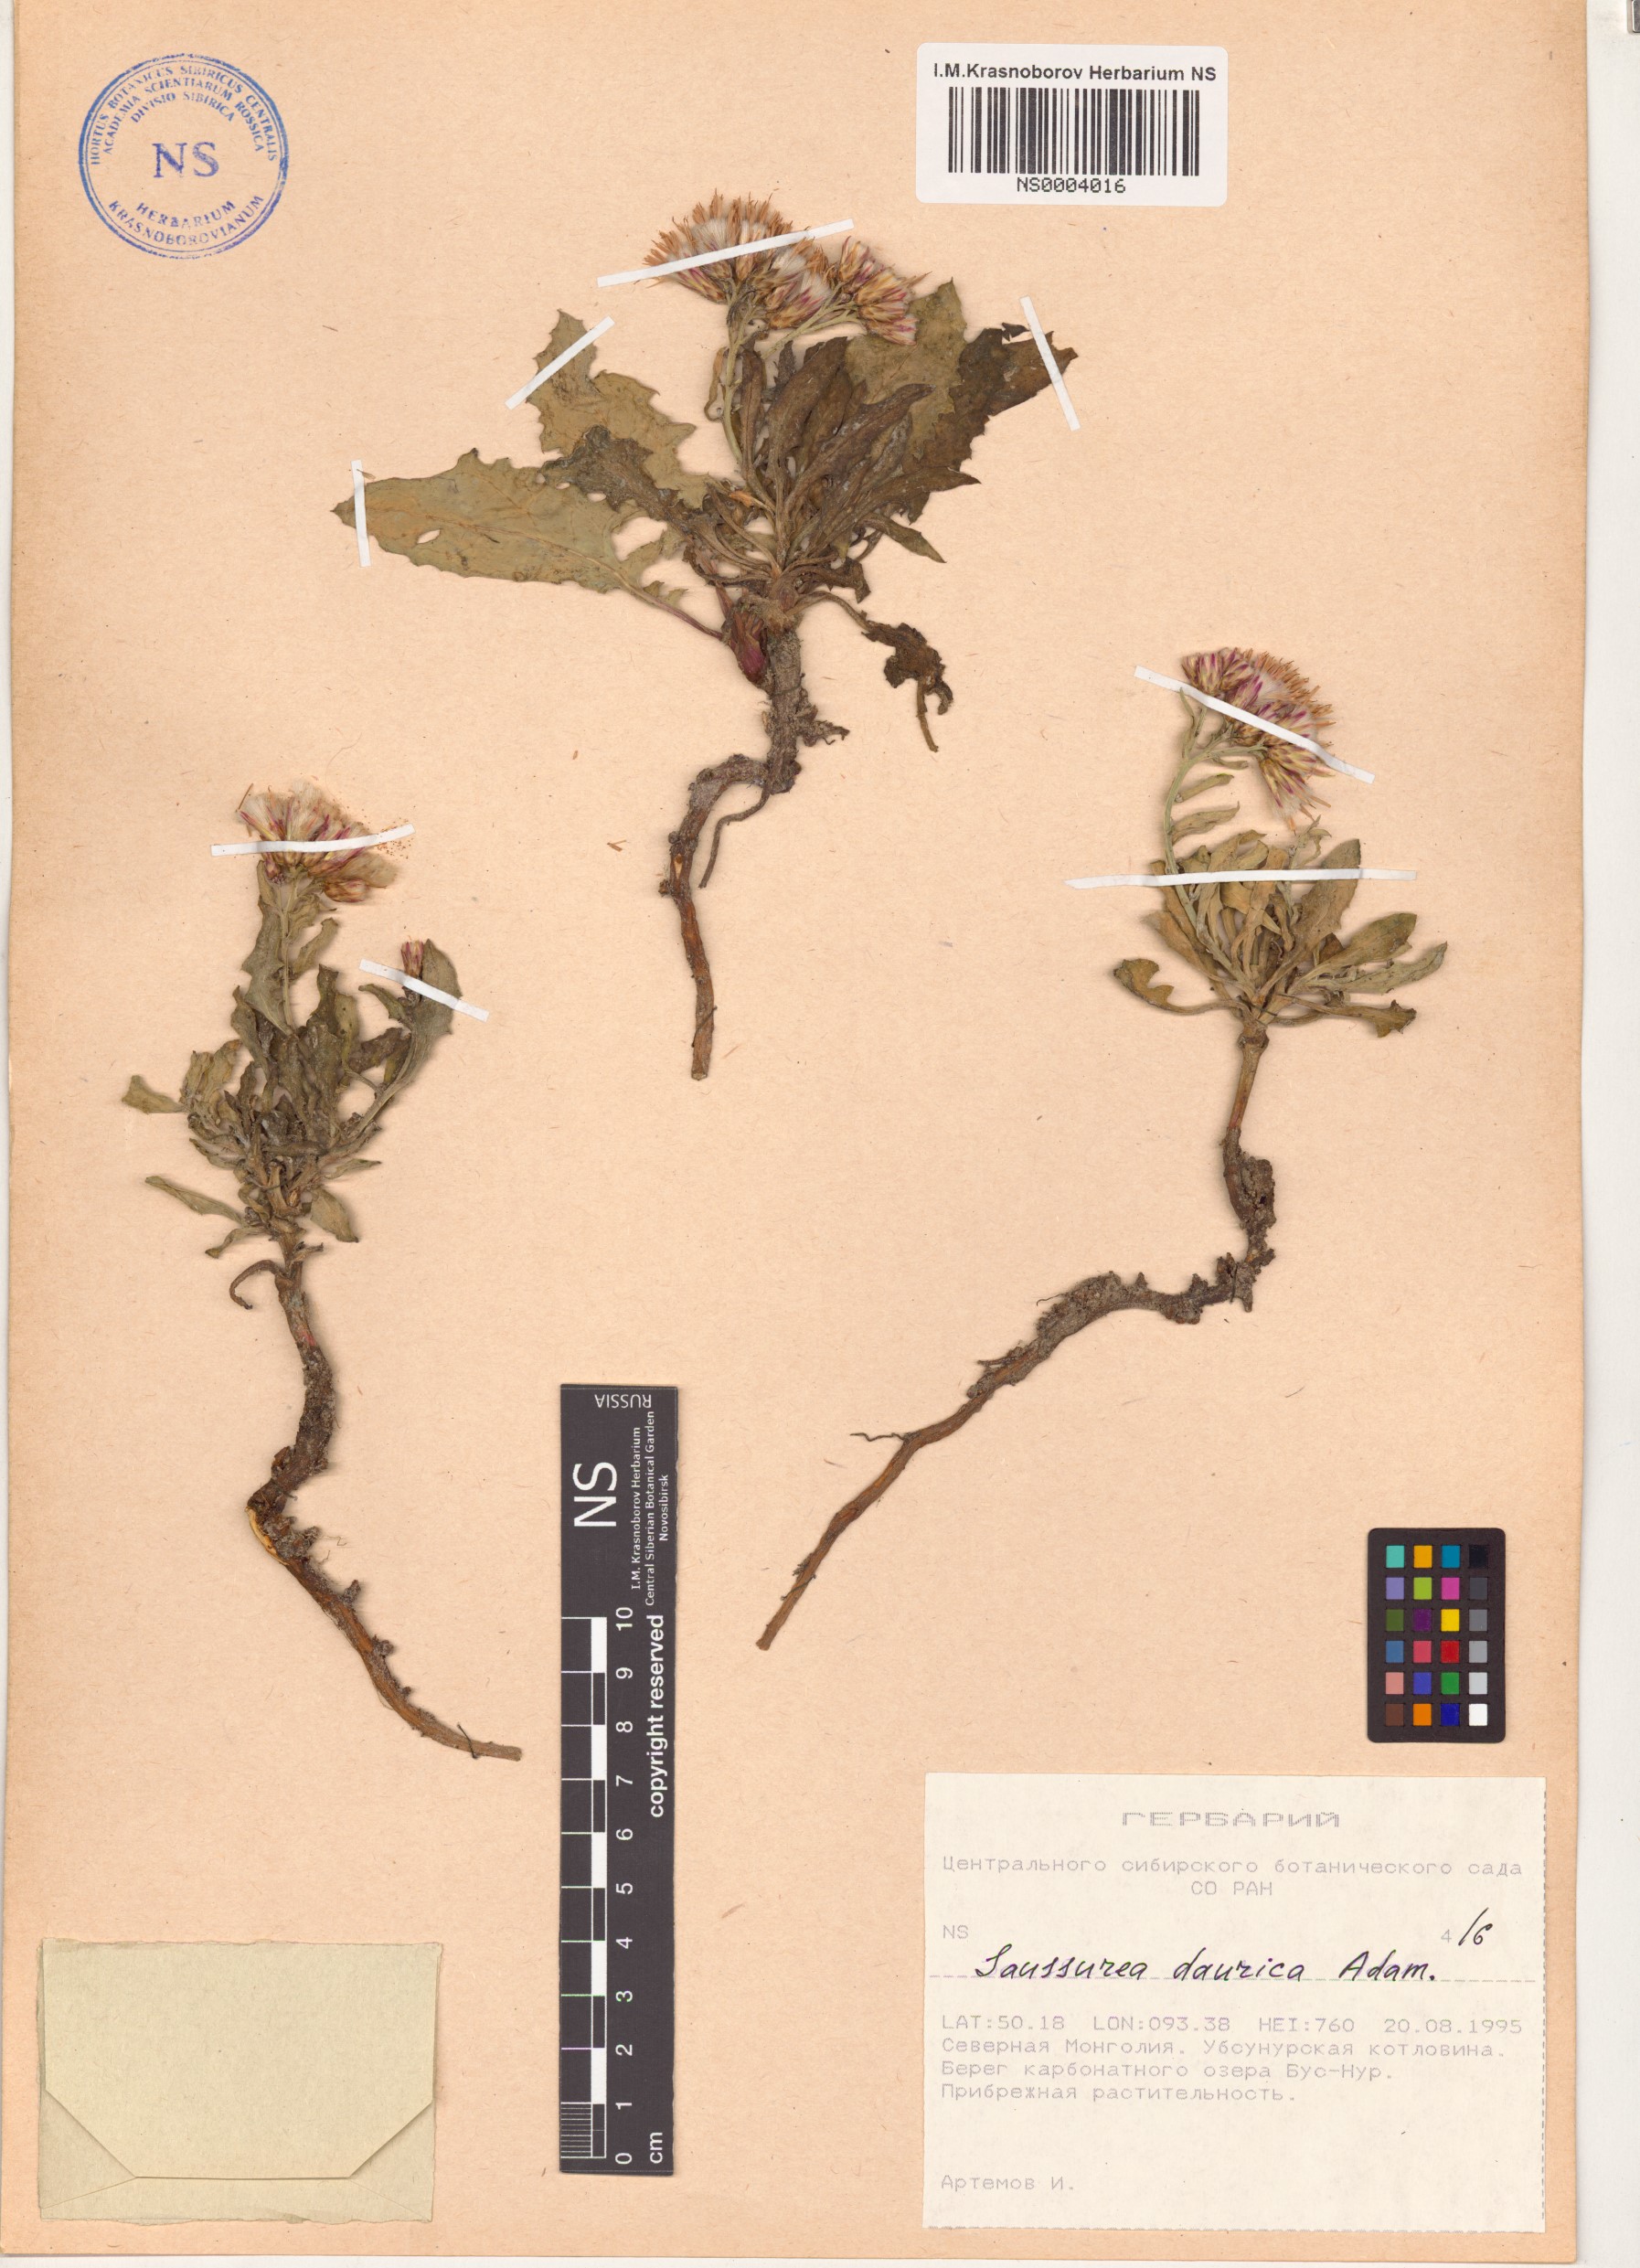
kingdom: Plantae
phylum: Tracheophyta
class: Magnoliopsida
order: Asterales
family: Asteraceae
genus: Saussurea
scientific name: Saussurea daurica
